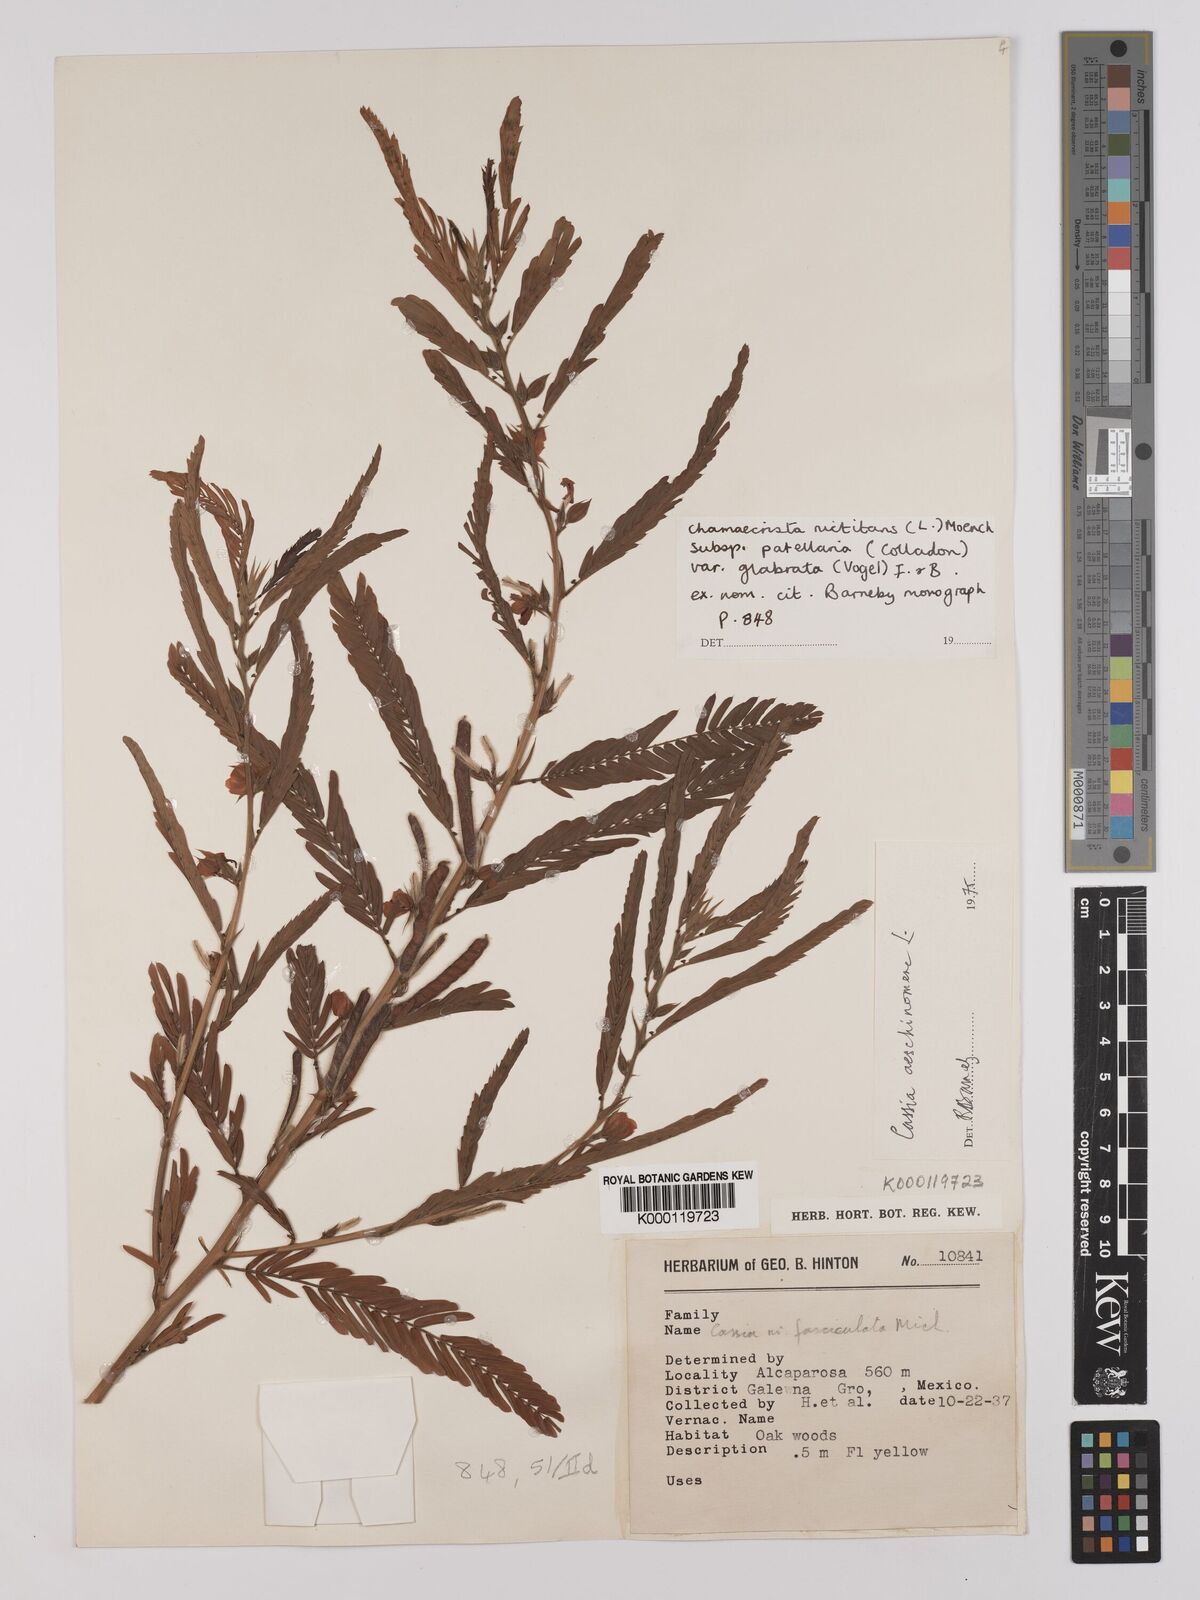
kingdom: Plantae
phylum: Tracheophyta
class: Magnoliopsida
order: Fabales
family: Fabaceae
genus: Chamaecrista
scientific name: Chamaecrista nictitans
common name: Sensitive cassia
